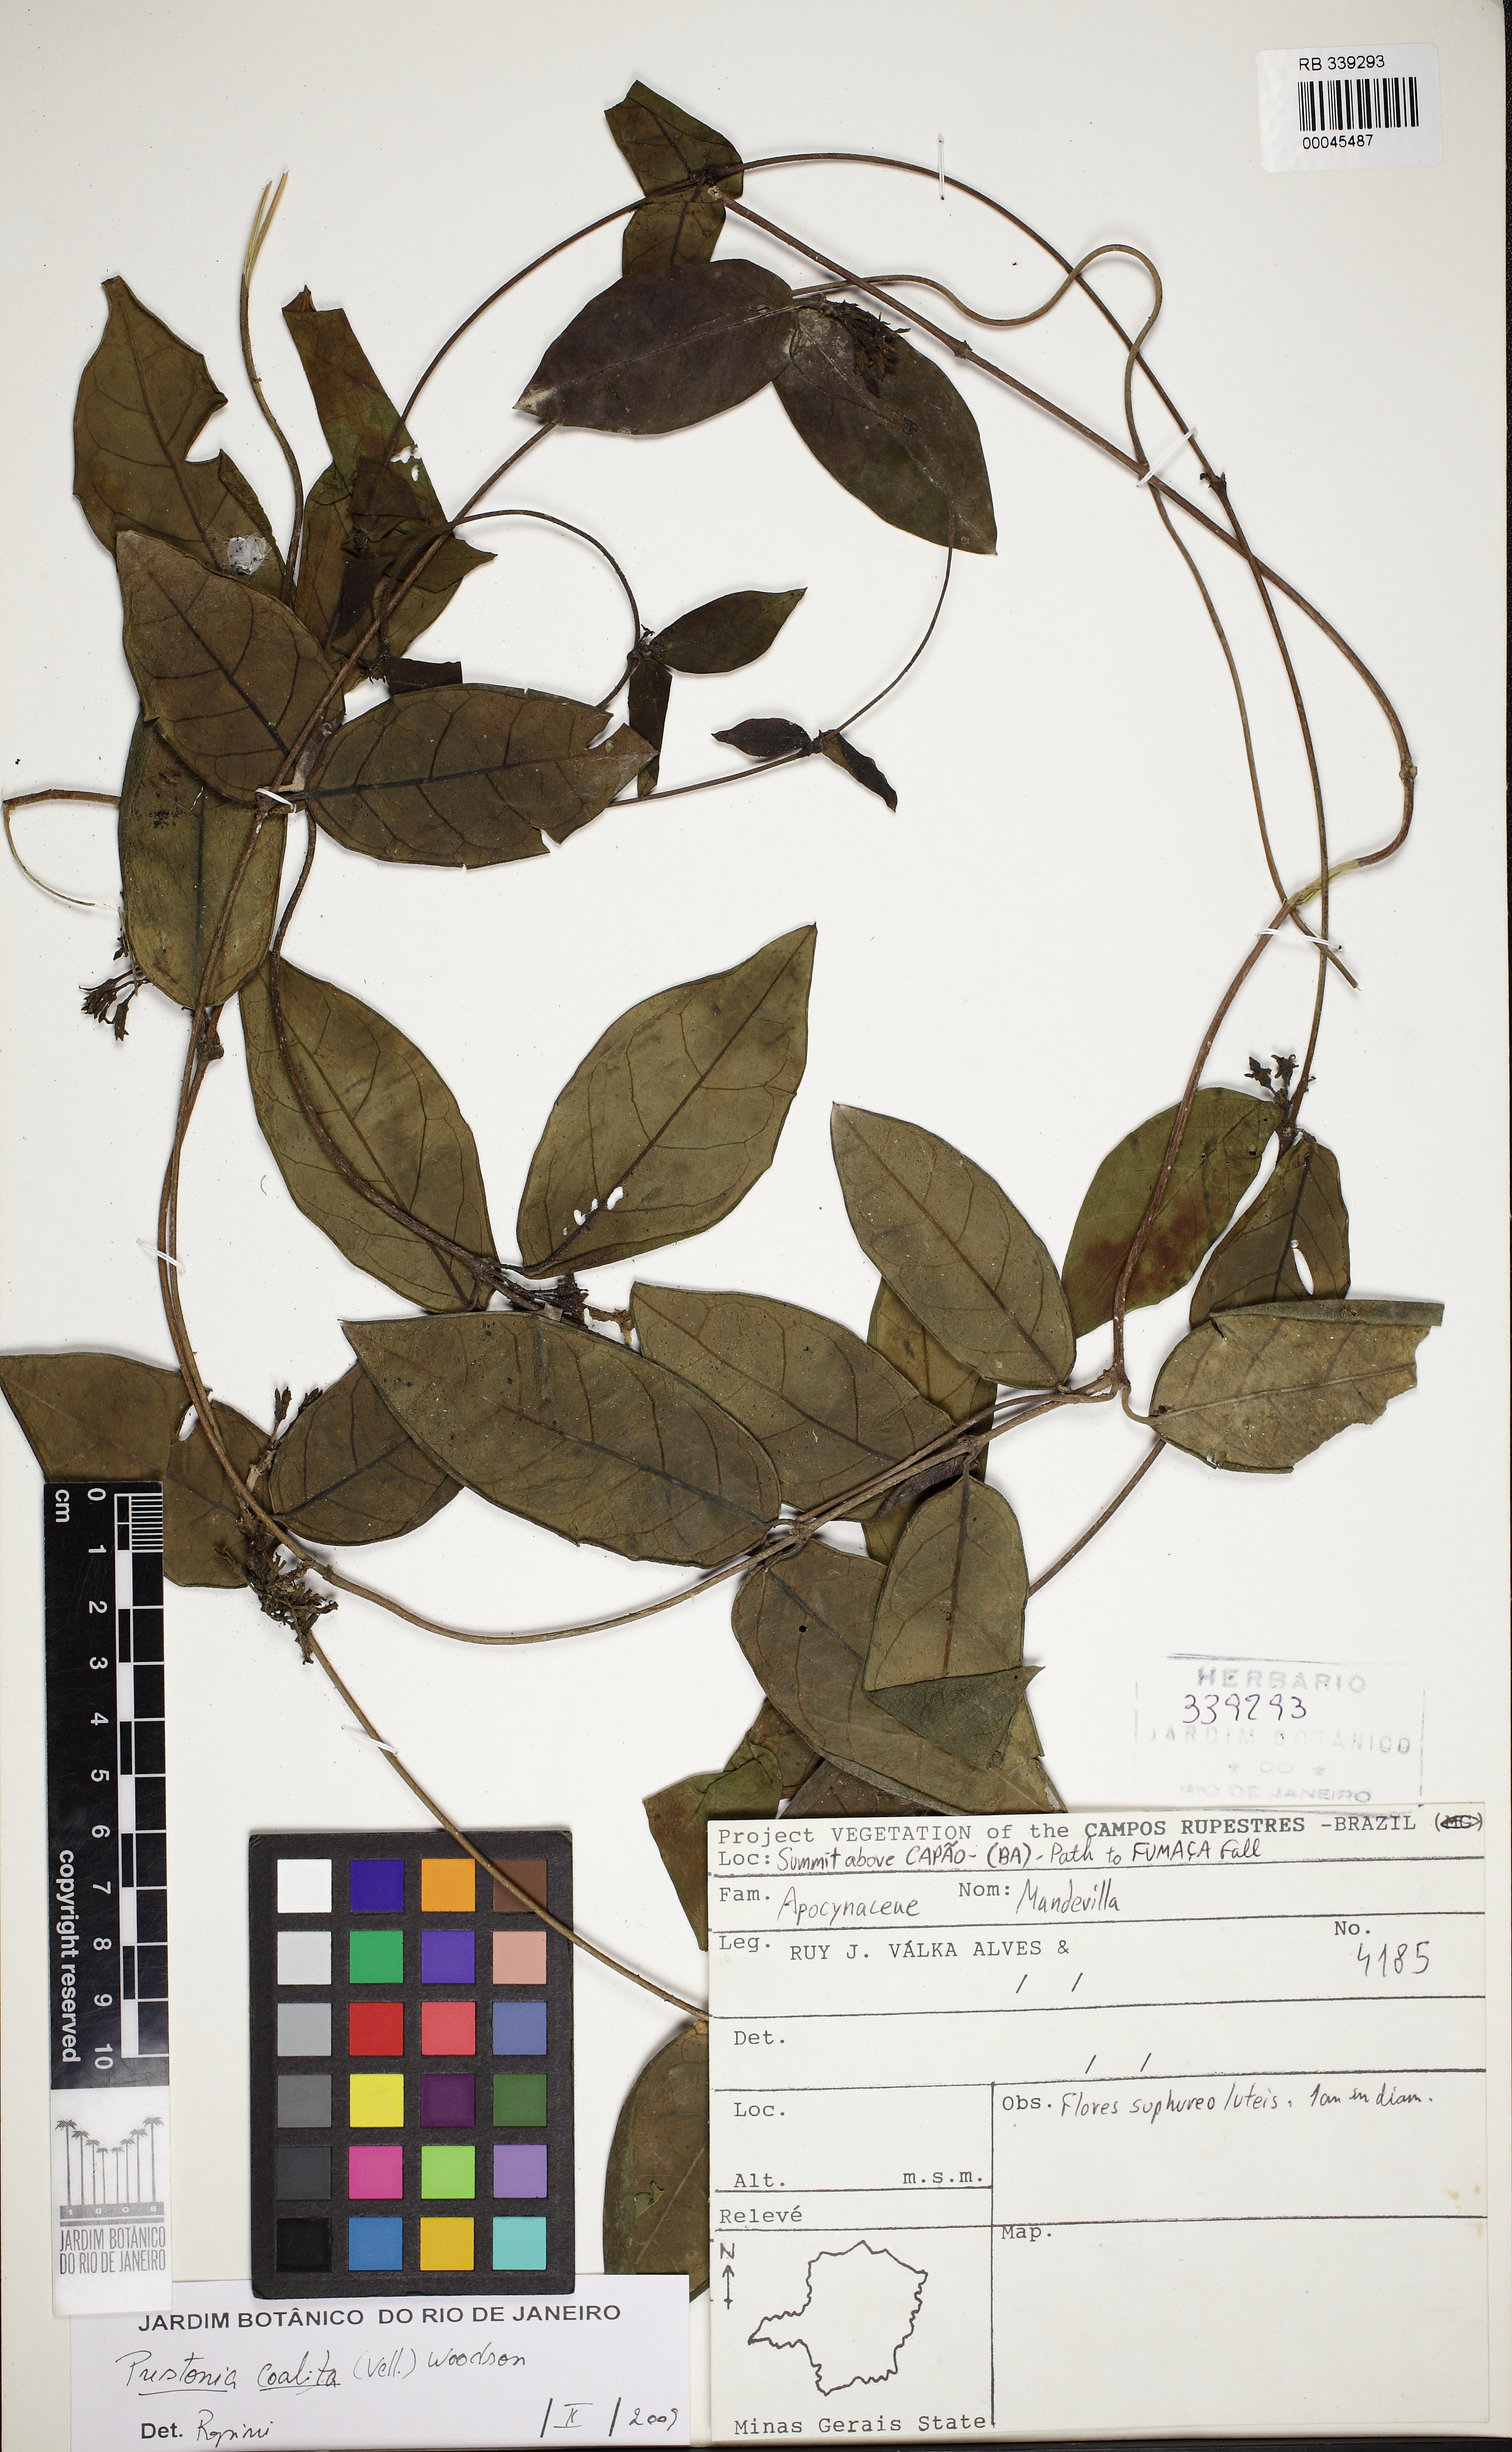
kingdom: Plantae
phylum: Tracheophyta
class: Magnoliopsida
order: Gentianales
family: Apocynaceae
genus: Prestonia
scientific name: Prestonia coalita
